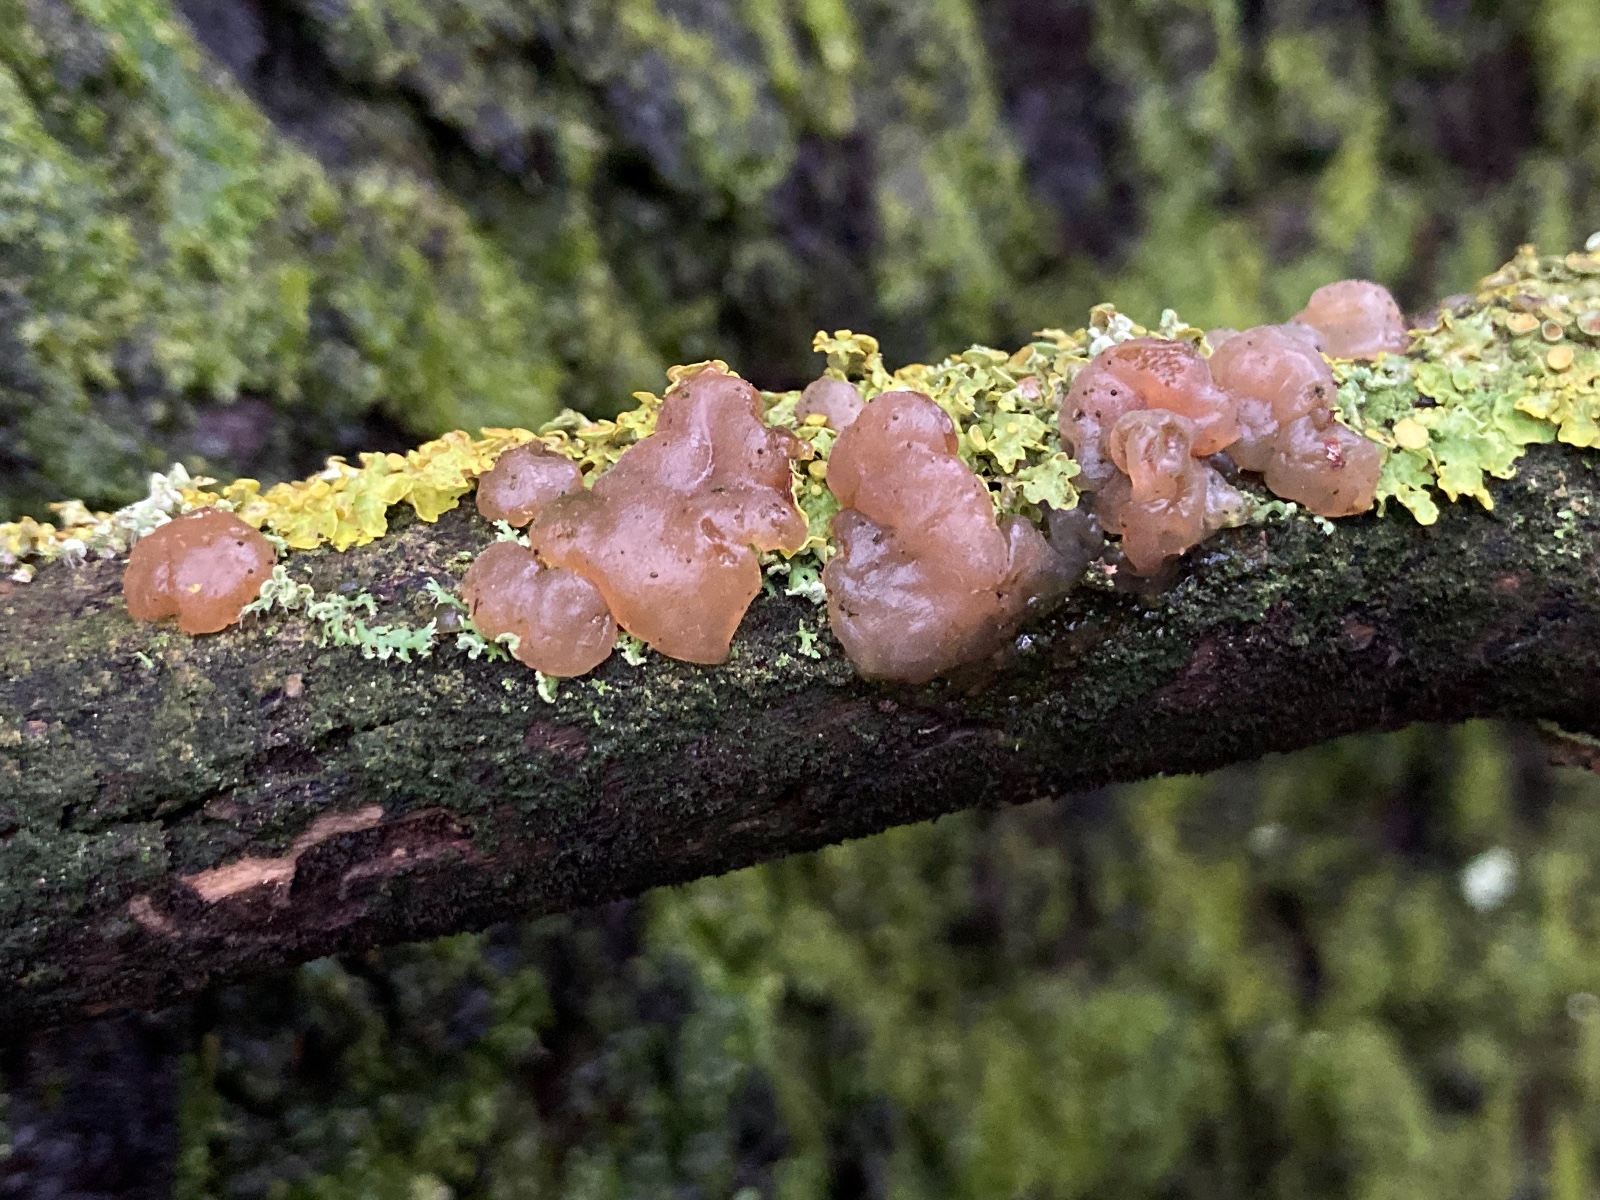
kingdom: Fungi
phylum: Basidiomycota
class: Agaricomycetes
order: Auriculariales
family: Hyaloriaceae
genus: Myxarium
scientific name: Myxarium hyalinum
